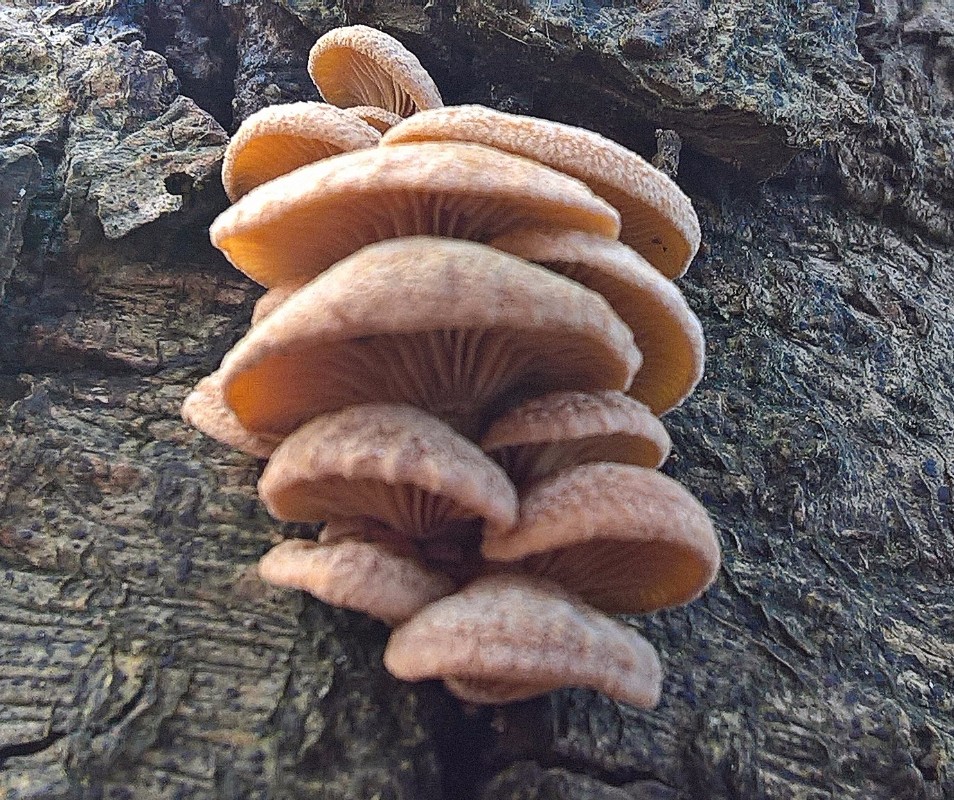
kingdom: Fungi
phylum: Basidiomycota
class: Agaricomycetes
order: Agaricales
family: Mycenaceae
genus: Panellus
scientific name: Panellus stipticus
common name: kliddet epaulethat
